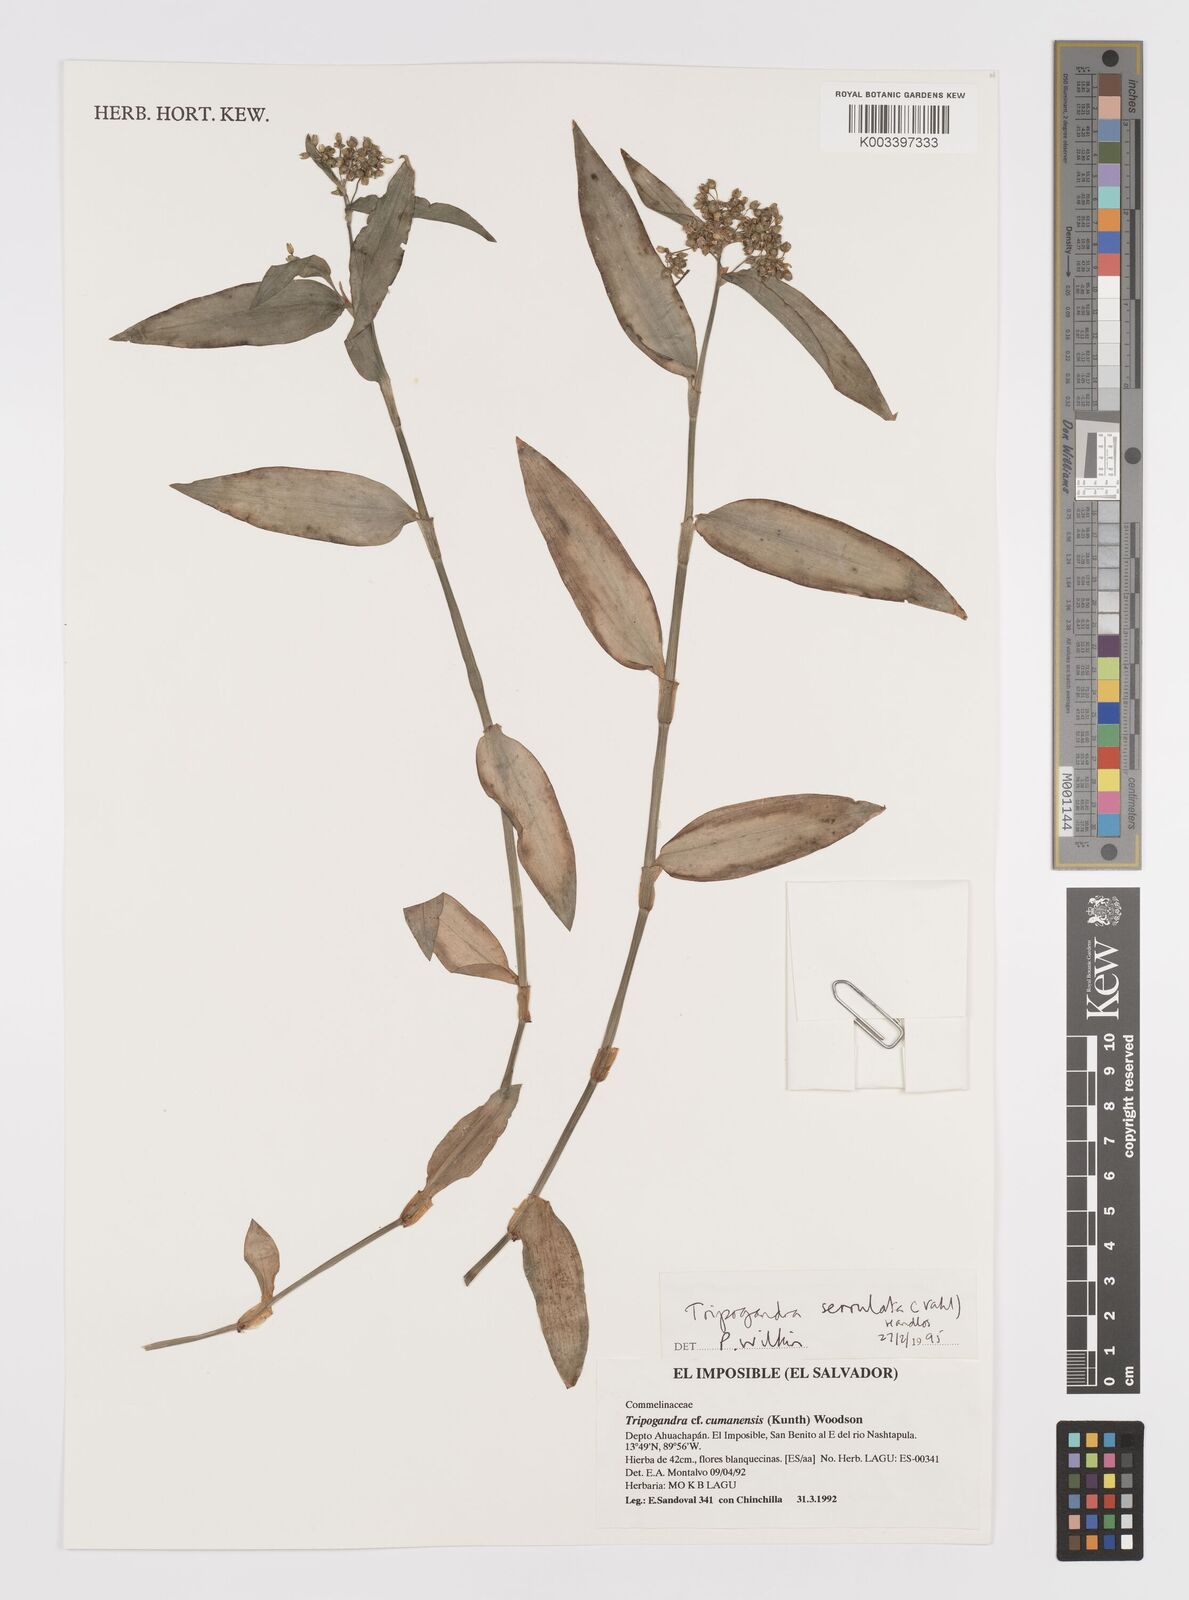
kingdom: Plantae
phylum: Tracheophyta
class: Liliopsida
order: Commelinales
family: Commelinaceae
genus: Callisia
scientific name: Callisia serrulata
